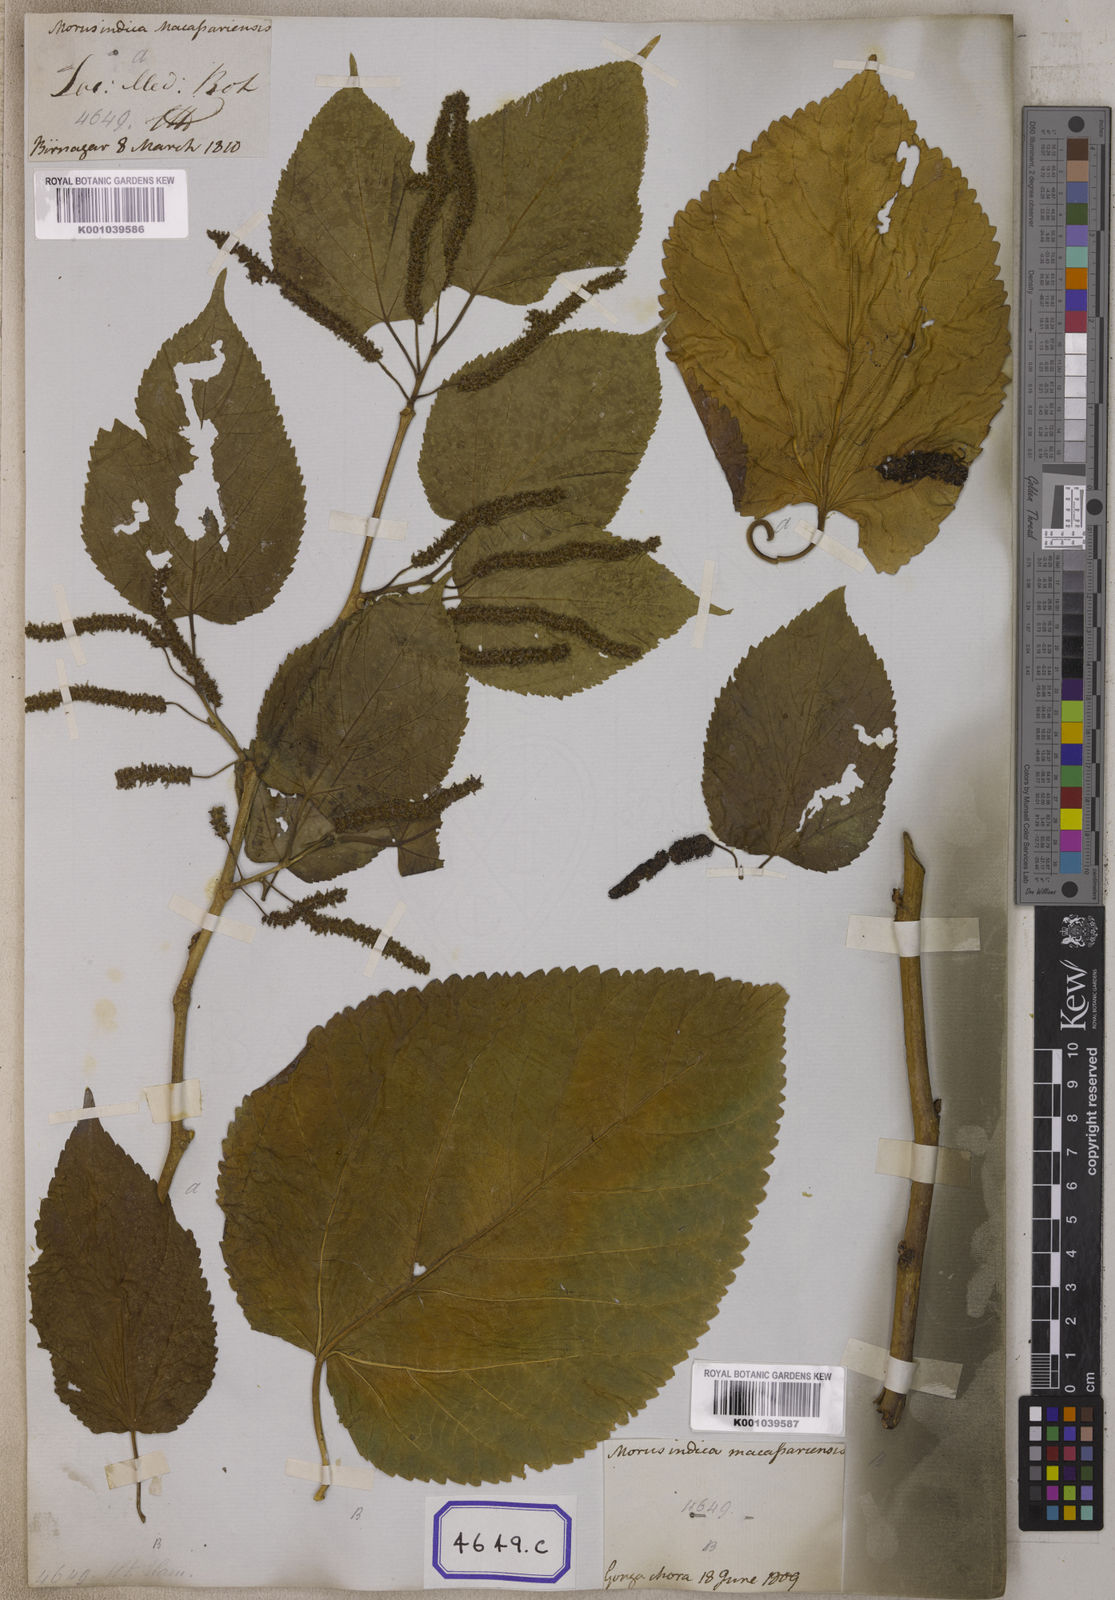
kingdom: Plantae
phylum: Tracheophyta
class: Magnoliopsida
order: Rosales
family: Moraceae
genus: Morus
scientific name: Morus
